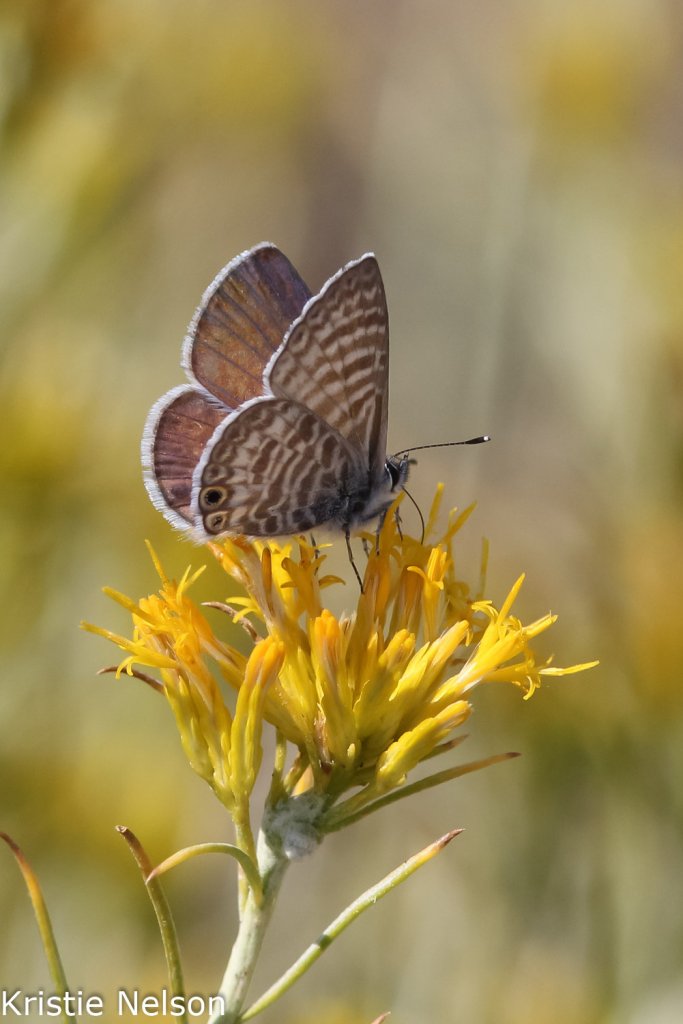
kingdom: Animalia
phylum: Arthropoda
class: Insecta
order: Lepidoptera
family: Lycaenidae
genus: Leptotes
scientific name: Leptotes marina
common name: Marine Blue
